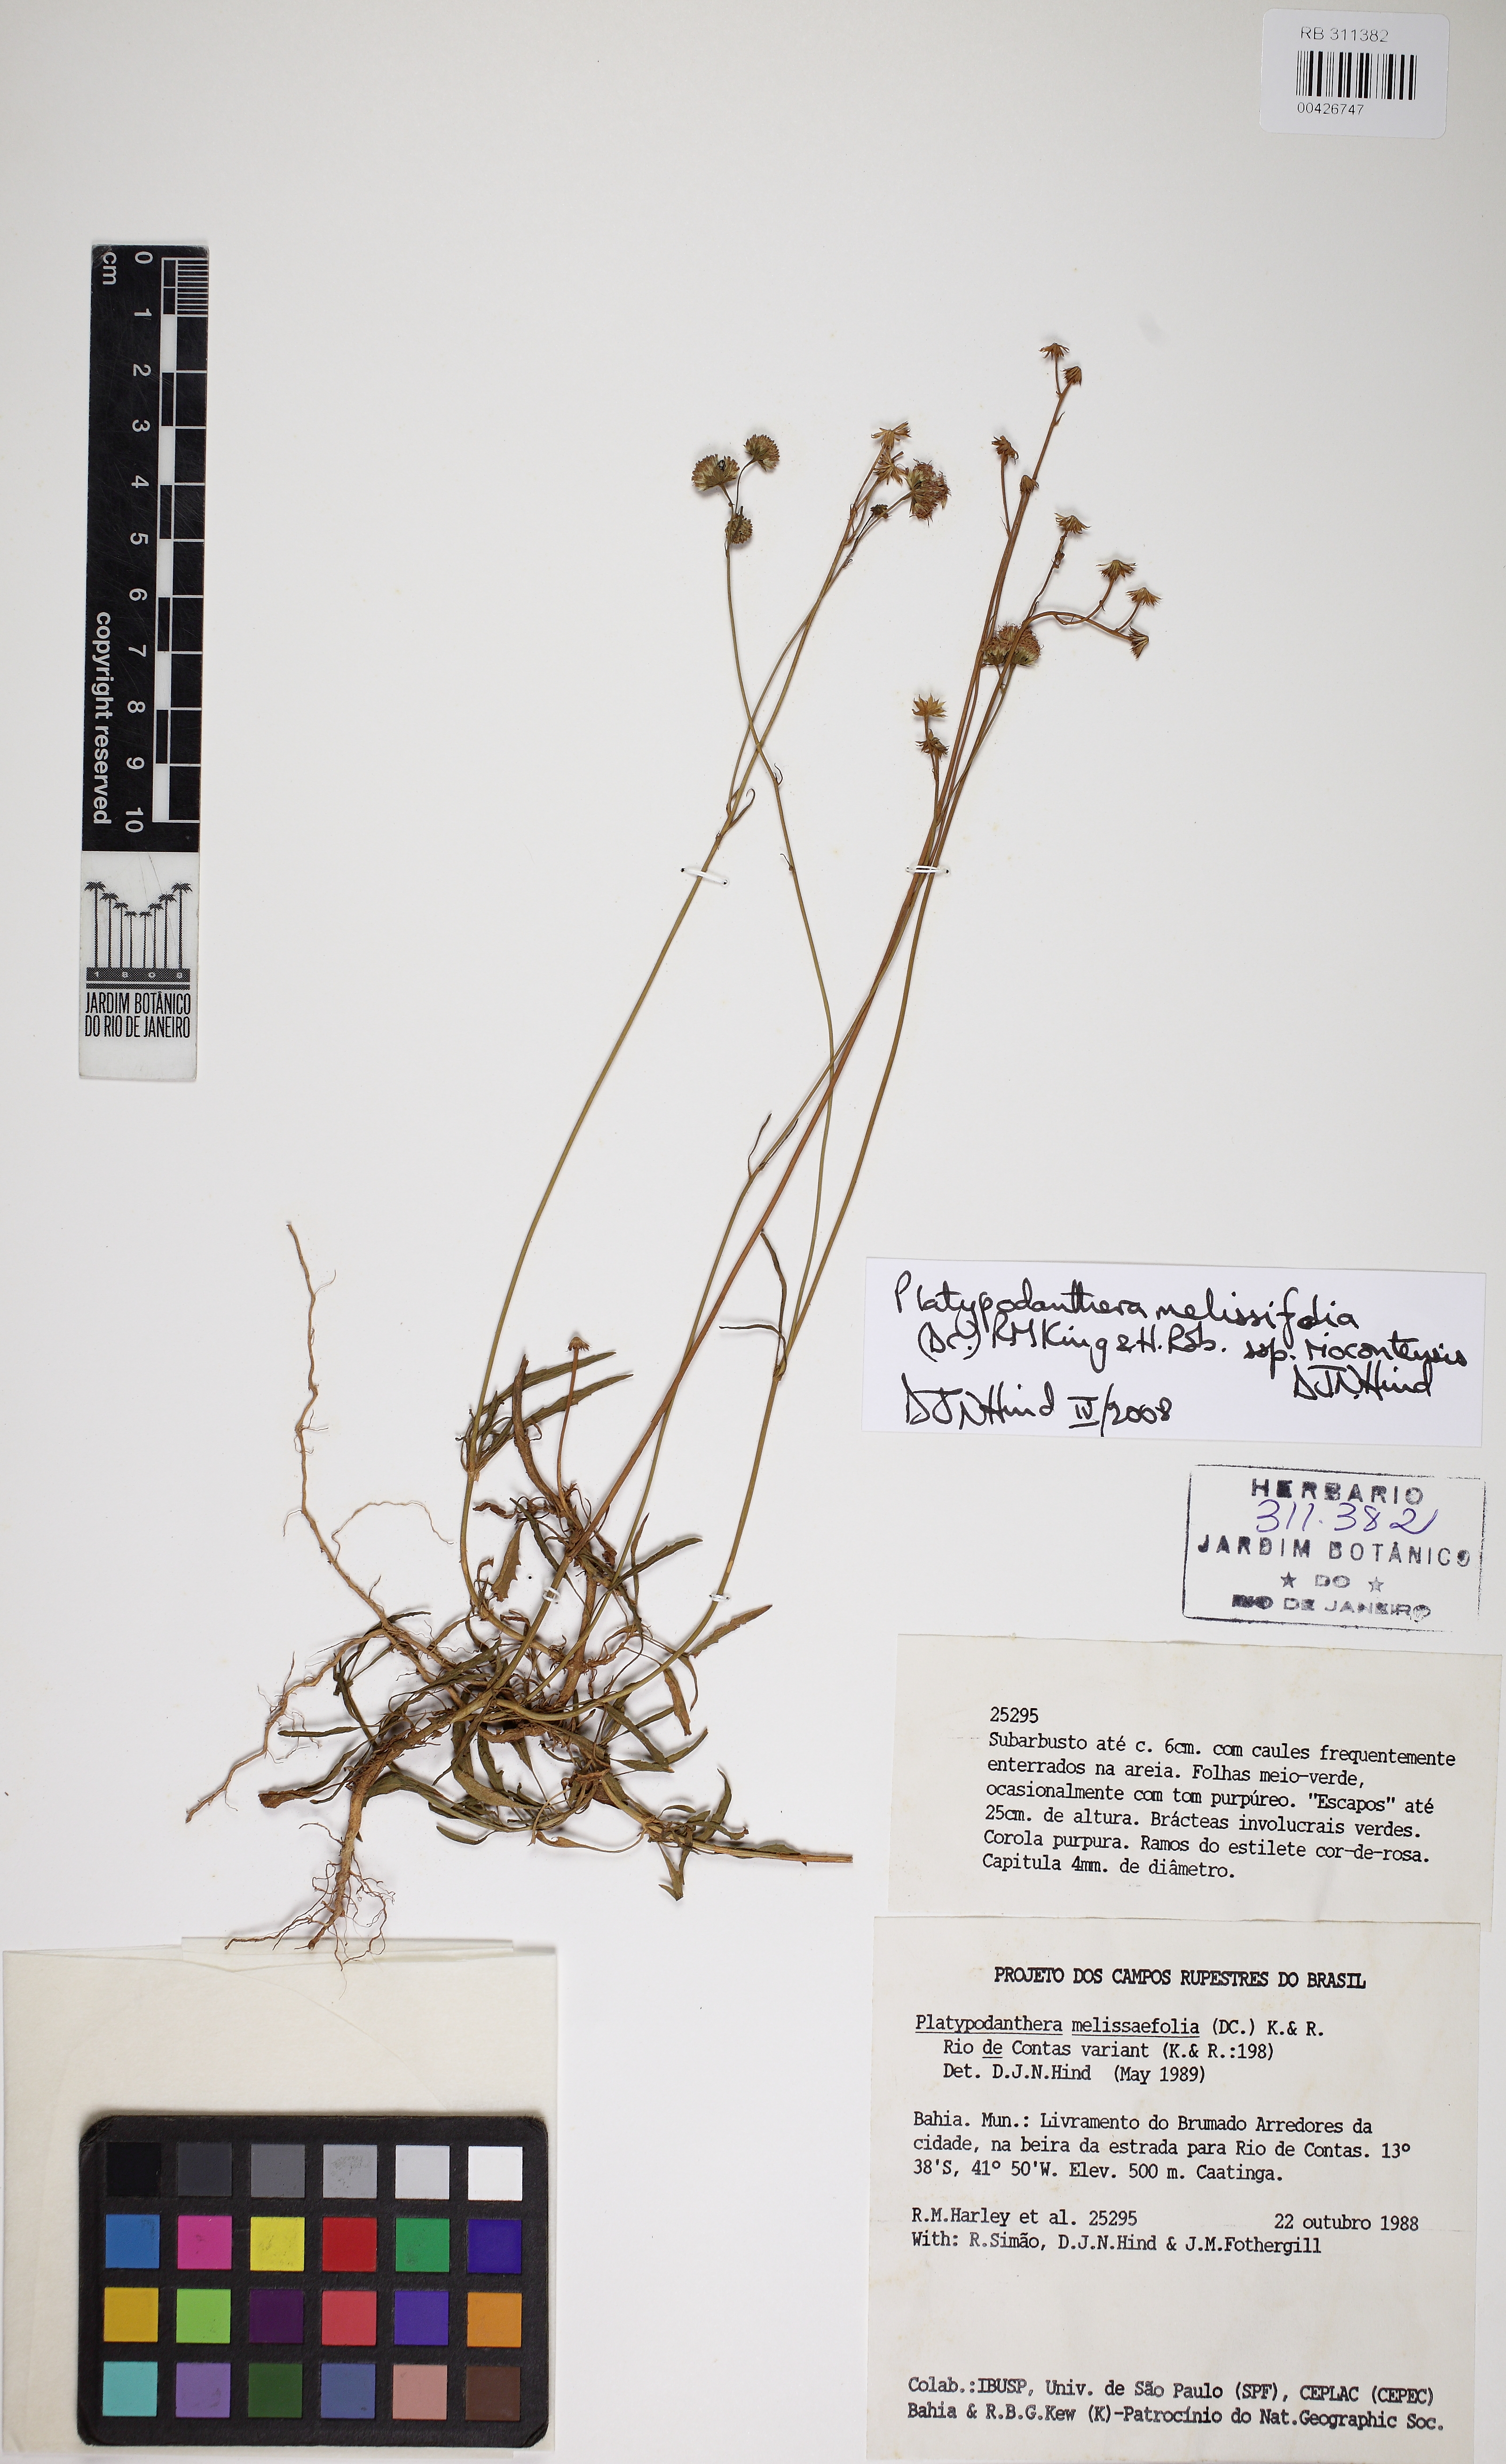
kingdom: Plantae
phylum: Tracheophyta
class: Magnoliopsida
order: Asterales
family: Asteraceae
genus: Platypodanthera
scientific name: Platypodanthera melissifolia
